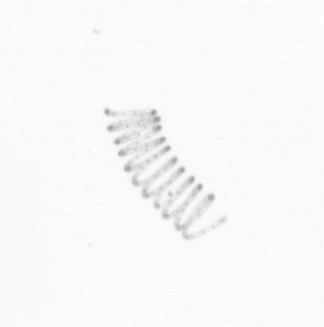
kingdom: Chromista
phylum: Ochrophyta
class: Bacillariophyceae
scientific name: Bacillariophyceae
